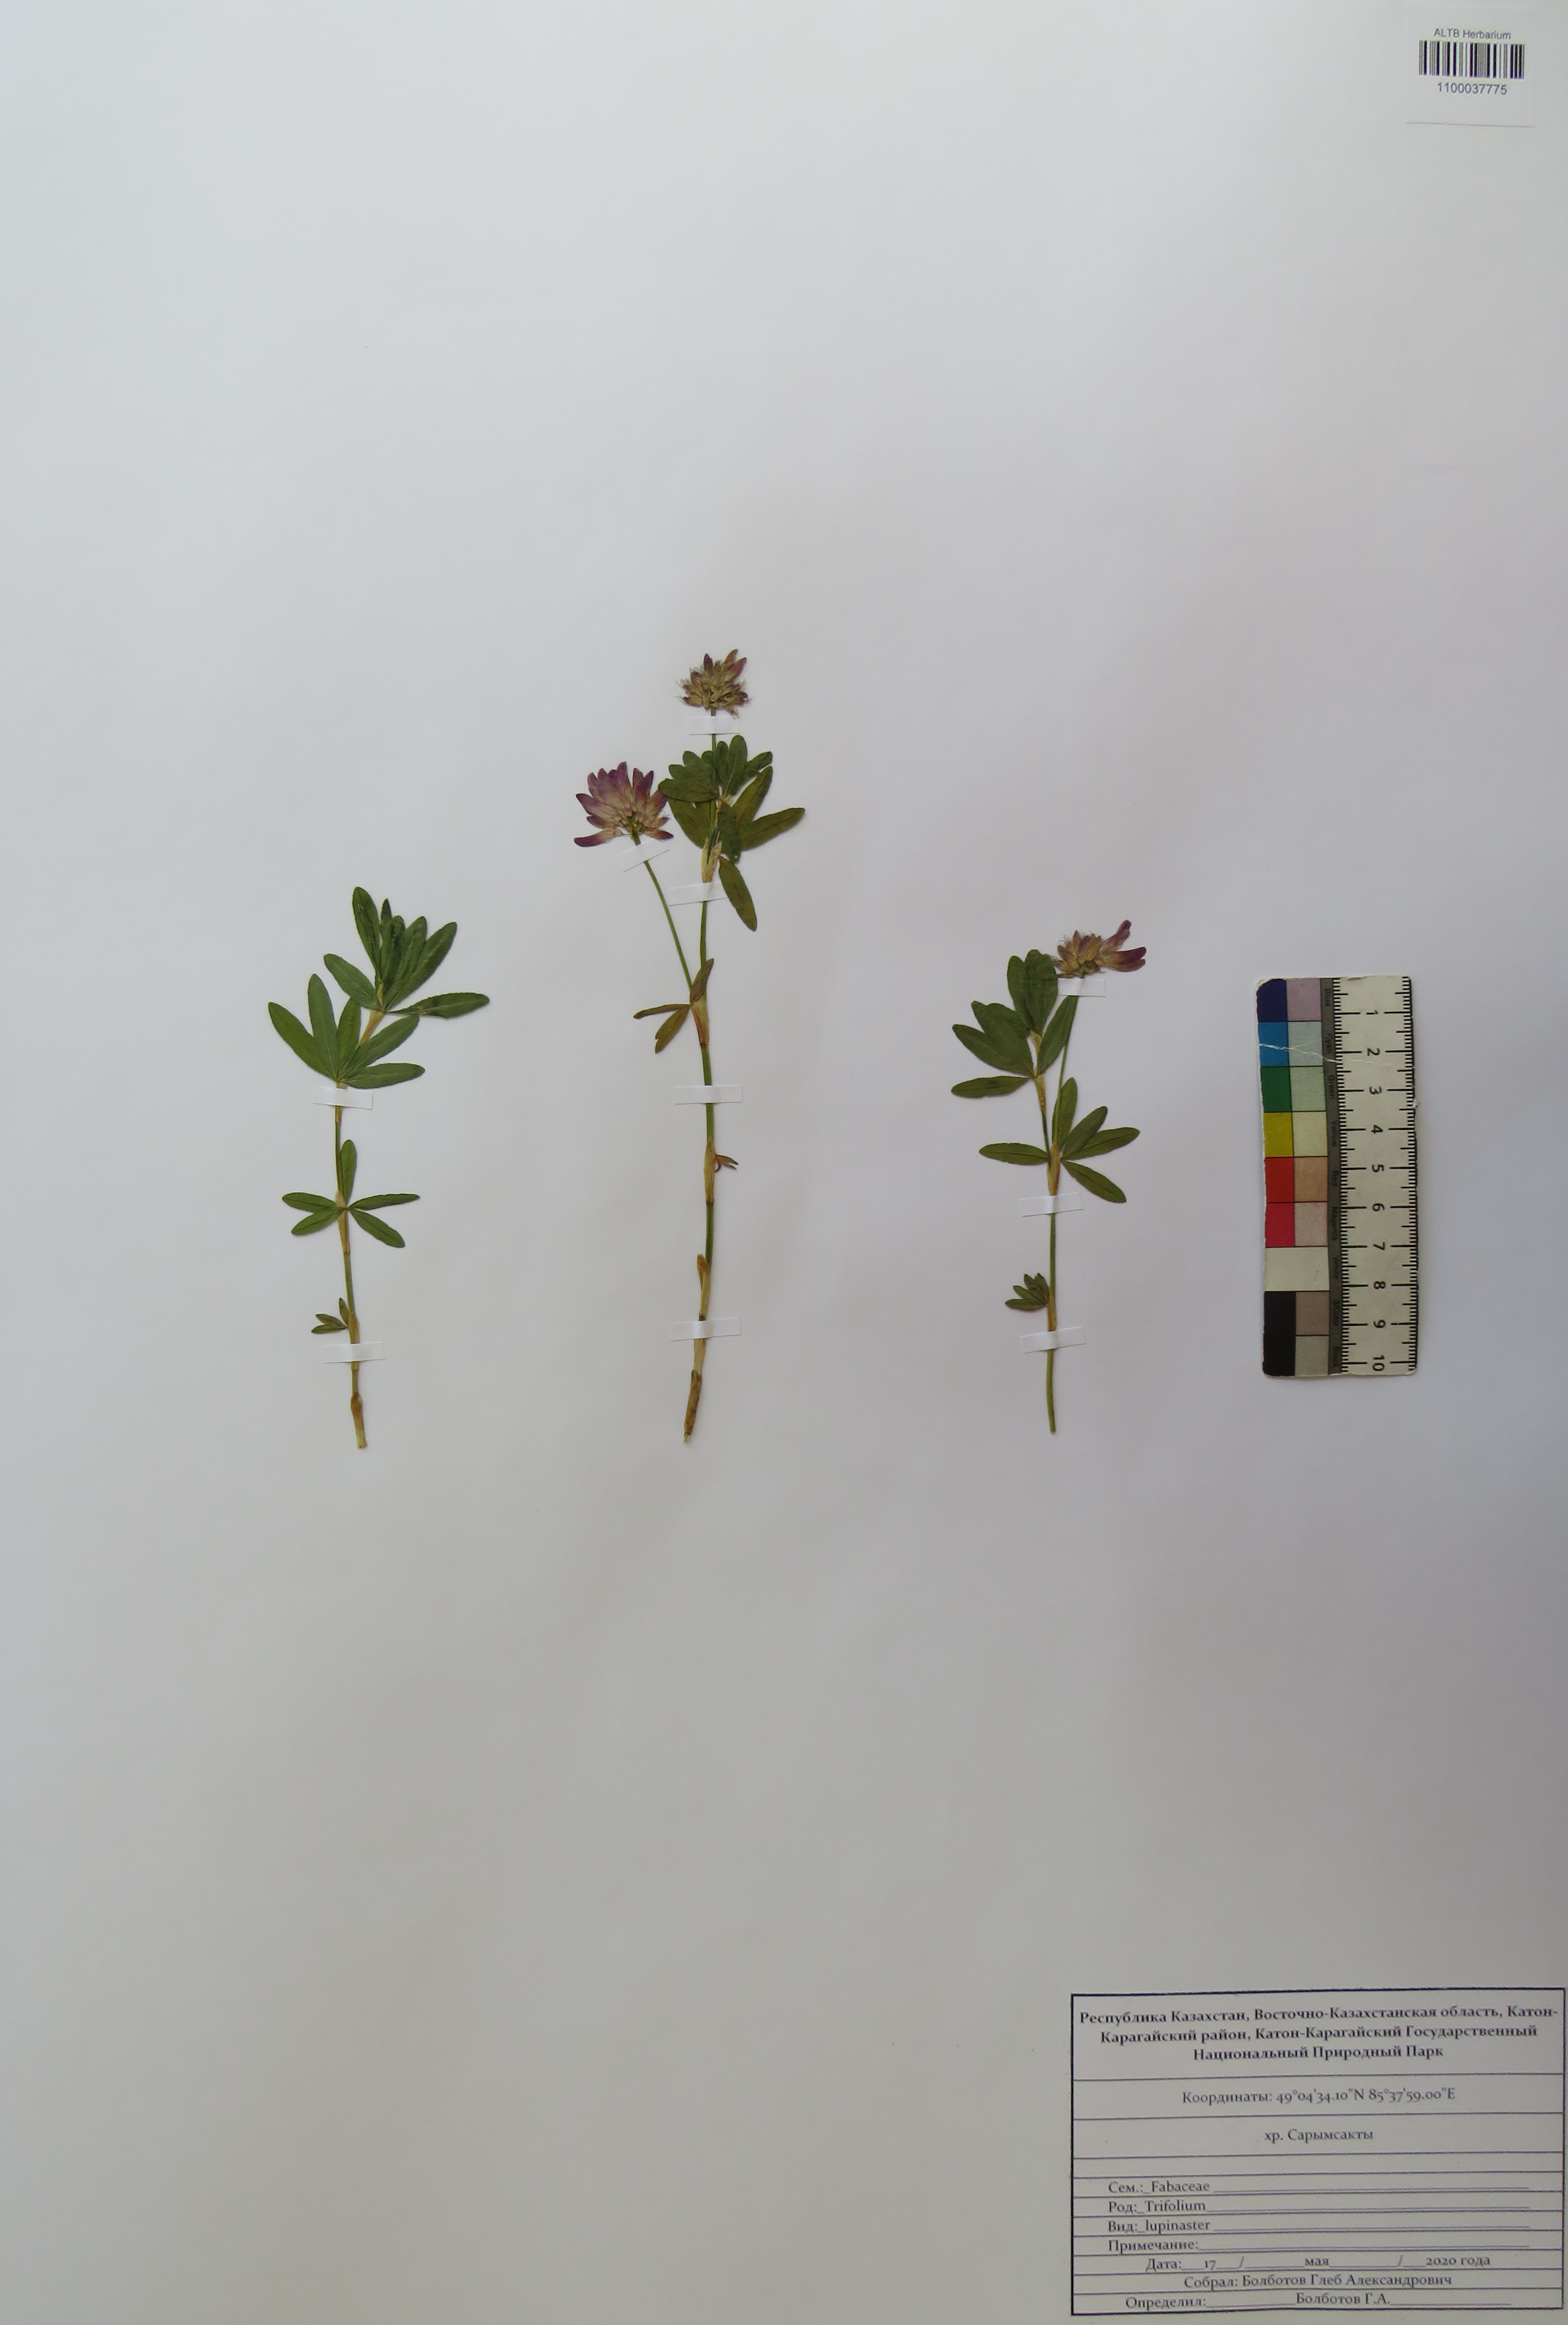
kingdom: Plantae
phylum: Tracheophyta
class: Magnoliopsida
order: Fabales
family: Fabaceae
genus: Trifolium
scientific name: Trifolium lupinaster
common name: Lupine clover
